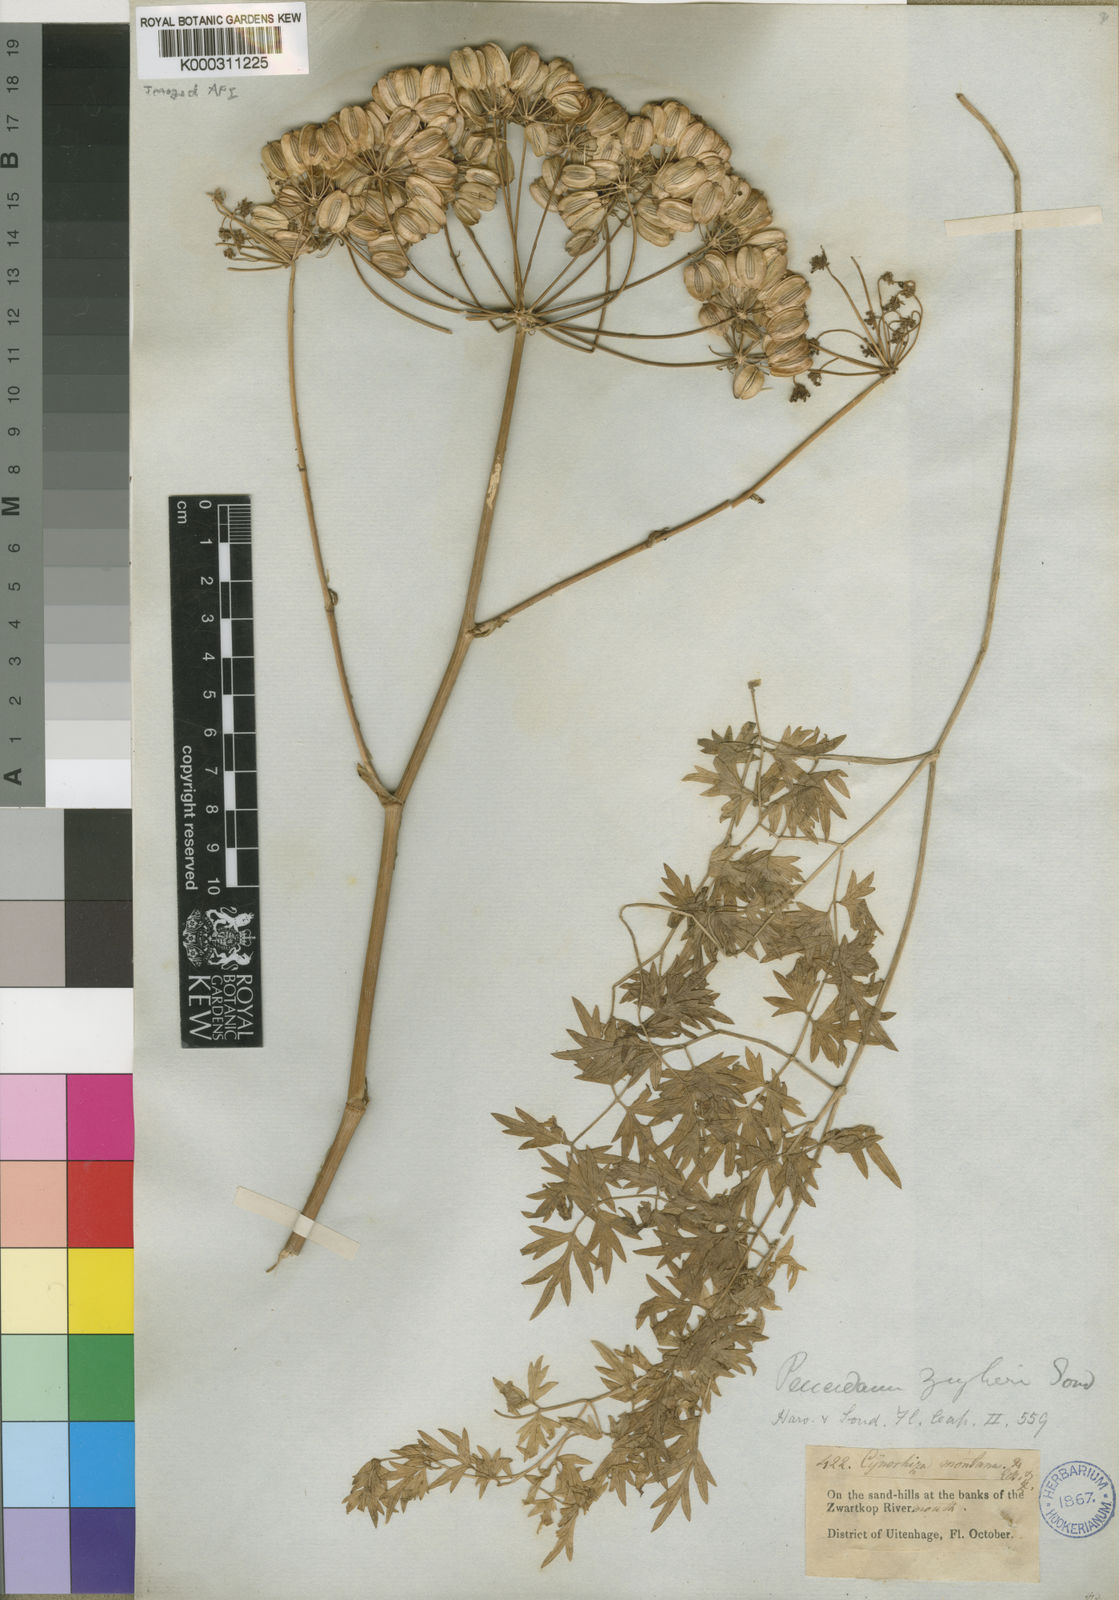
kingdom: Plantae
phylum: Tracheophyta
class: Magnoliopsida
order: Apiales
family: Apiaceae
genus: Cynorhiza
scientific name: Cynorhiza typica
